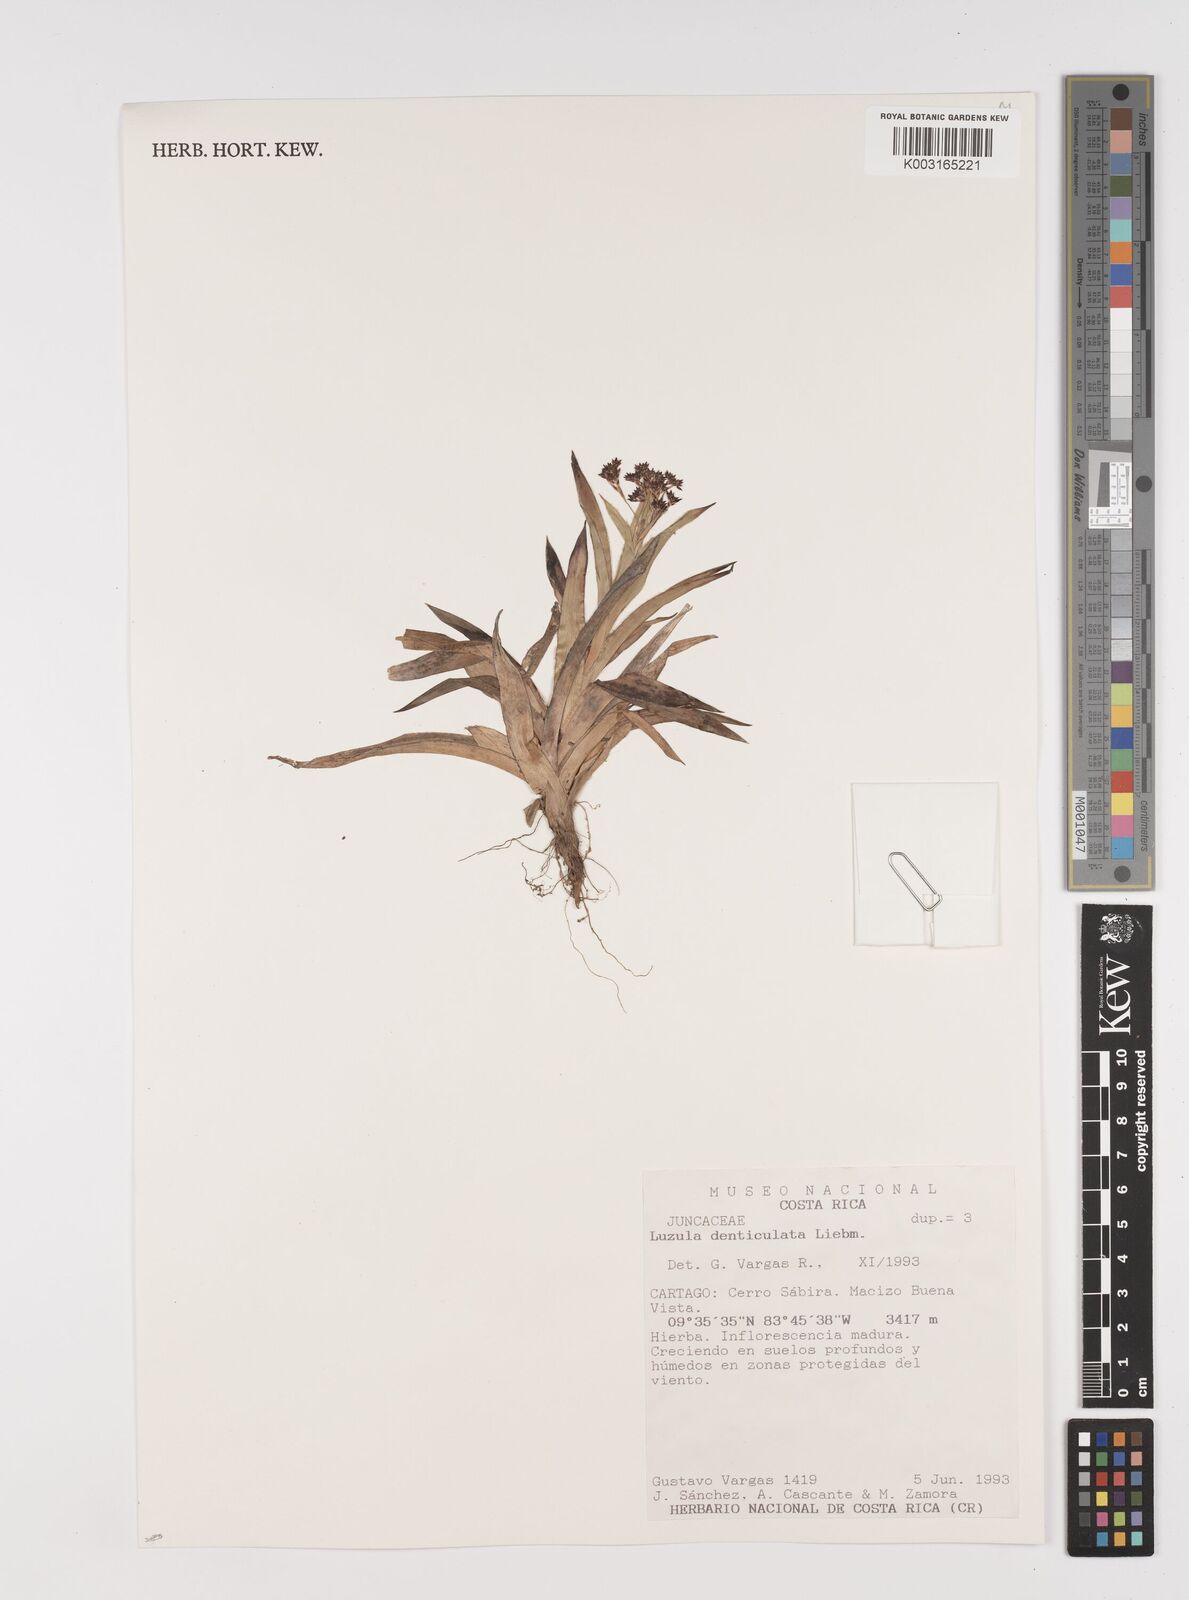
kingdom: Plantae
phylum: Tracheophyta
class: Liliopsida
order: Poales
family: Juncaceae
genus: Luzula
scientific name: Luzula gigantea
